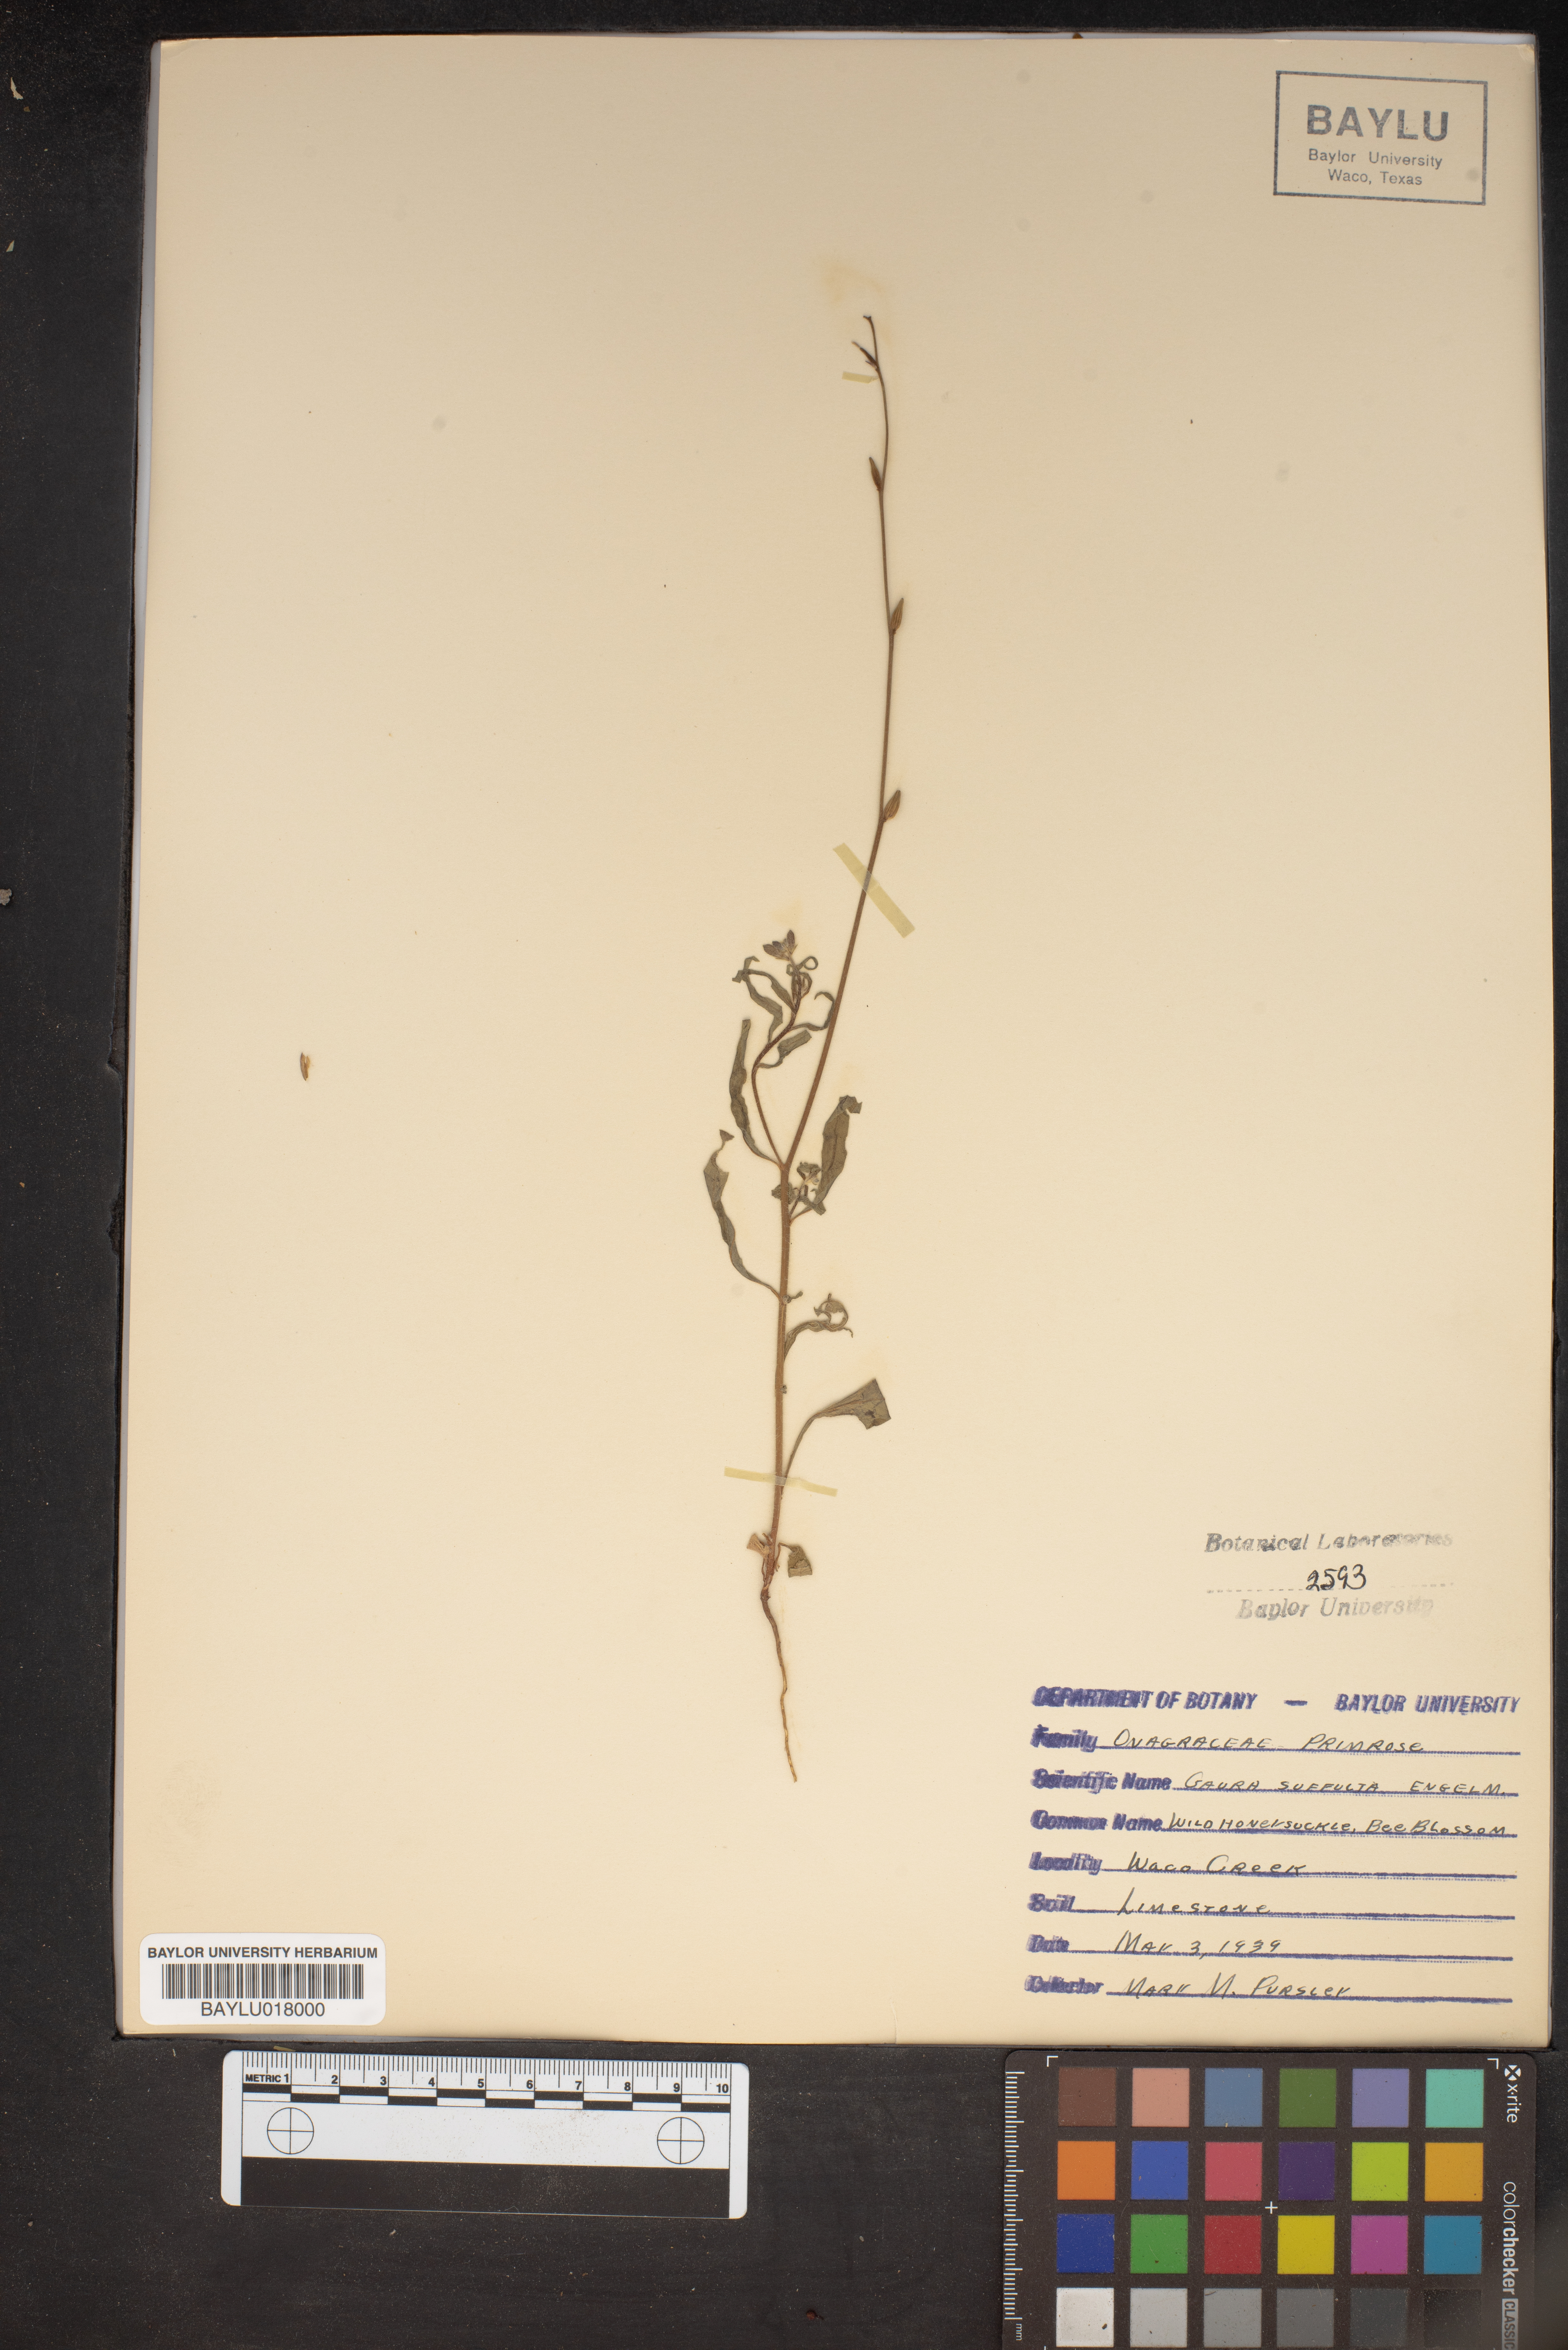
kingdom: Plantae
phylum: Tracheophyta
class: Magnoliopsida
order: Myrtales
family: Onagraceae
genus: Oenothera
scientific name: Oenothera Gaura suffulta
